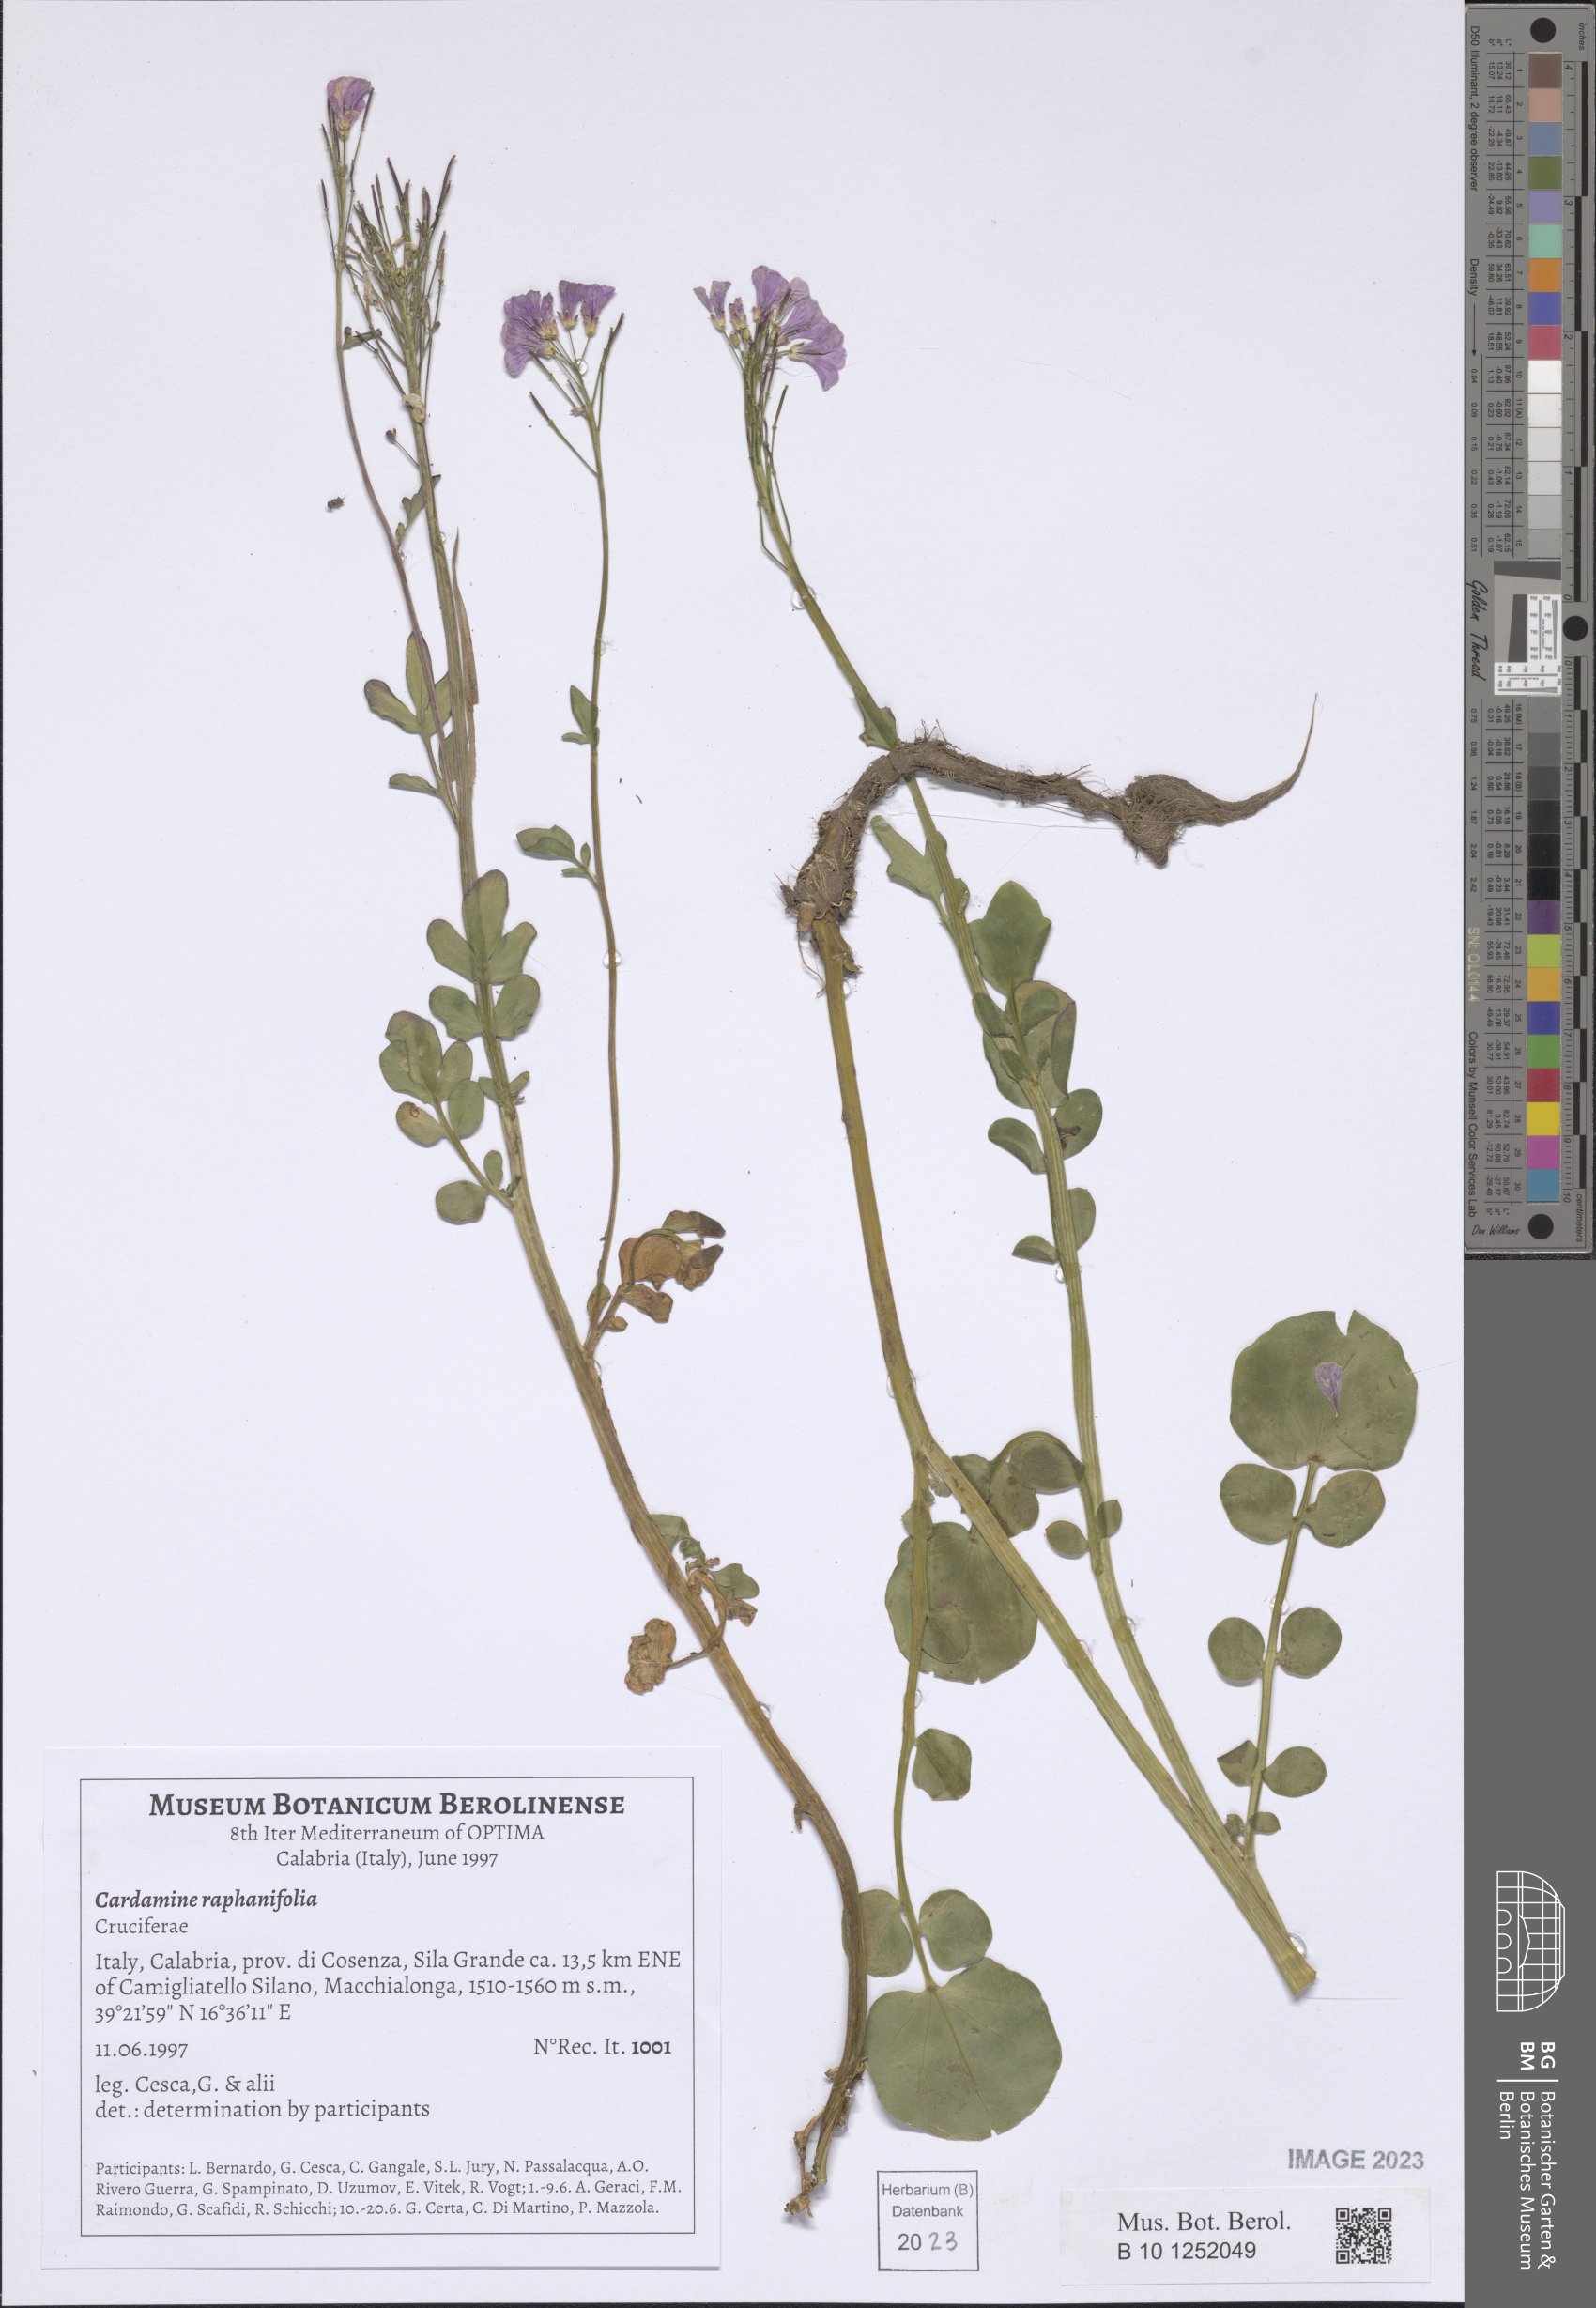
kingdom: Plantae
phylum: Tracheophyta
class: Magnoliopsida
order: Brassicales
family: Brassicaceae
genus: Cardamine
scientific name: Cardamine raphanifolia
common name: Greater cuckooflower
